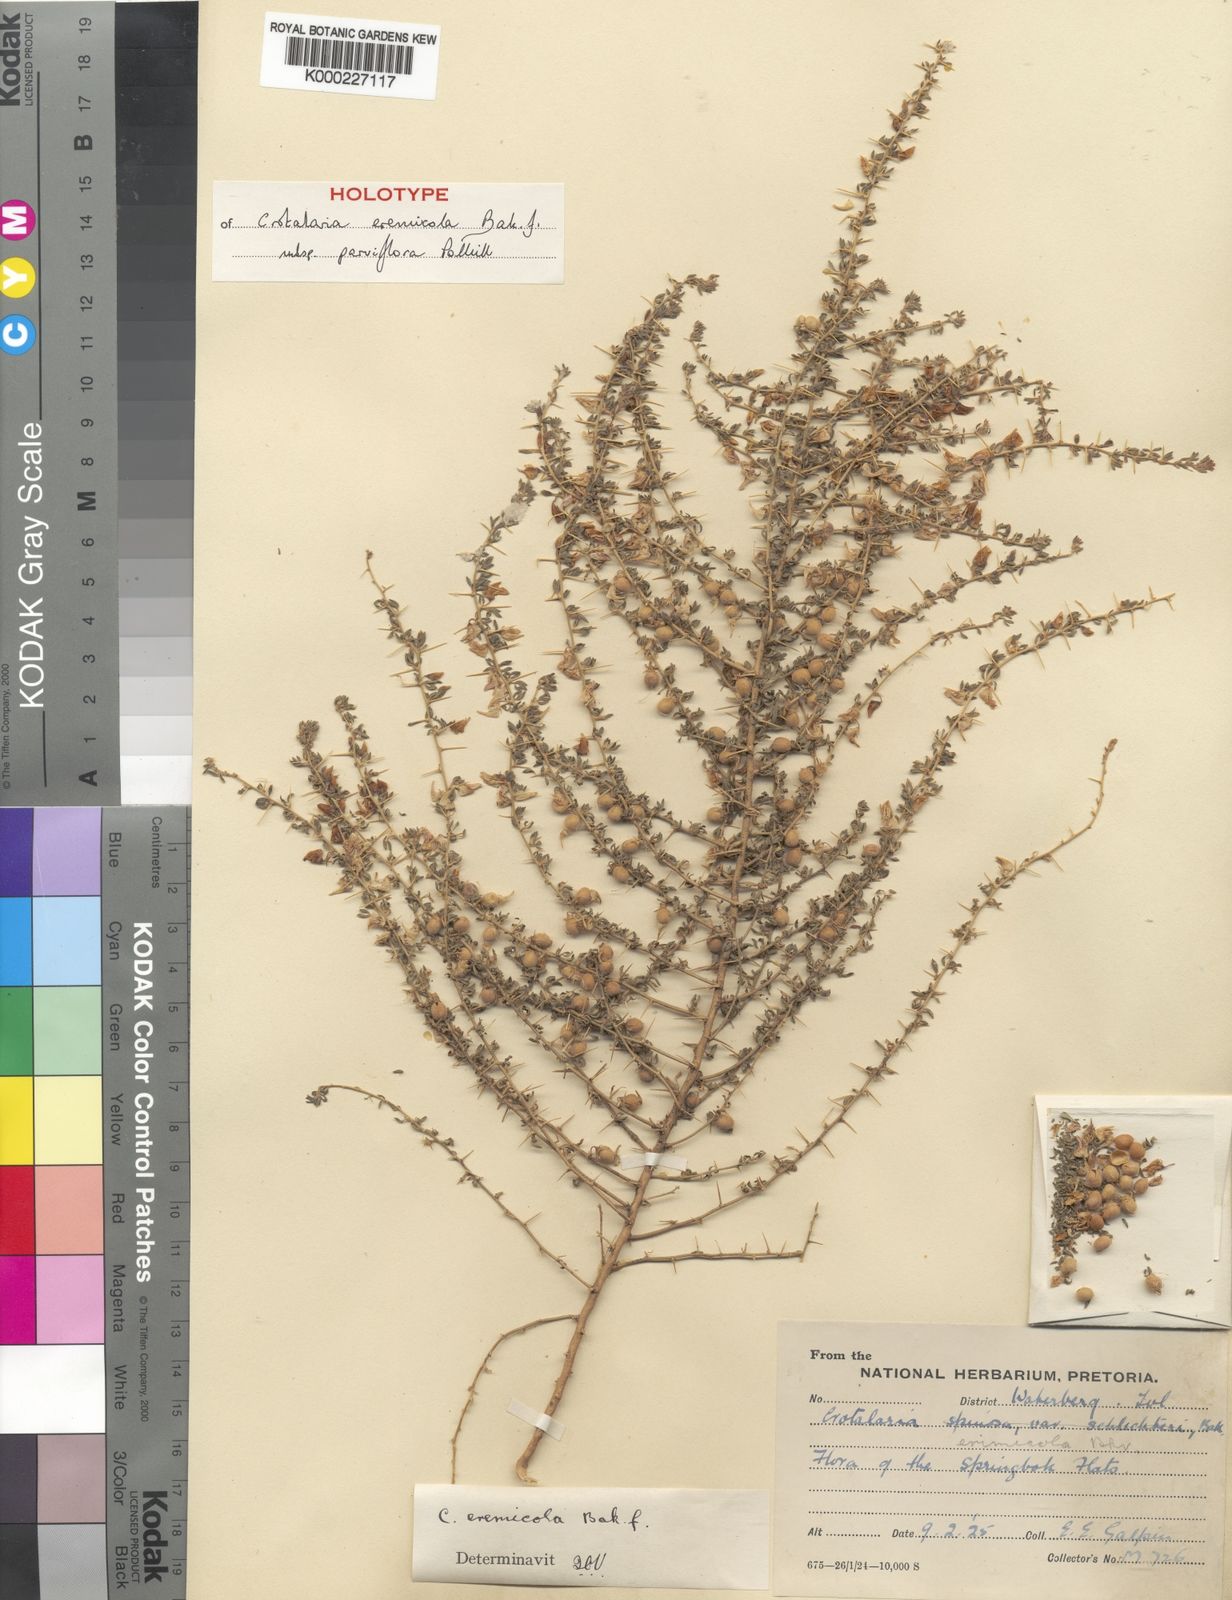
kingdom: Plantae
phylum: Tracheophyta
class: Magnoliopsida
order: Fabales
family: Fabaceae
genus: Crotalaria
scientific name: Crotalaria eremicola
